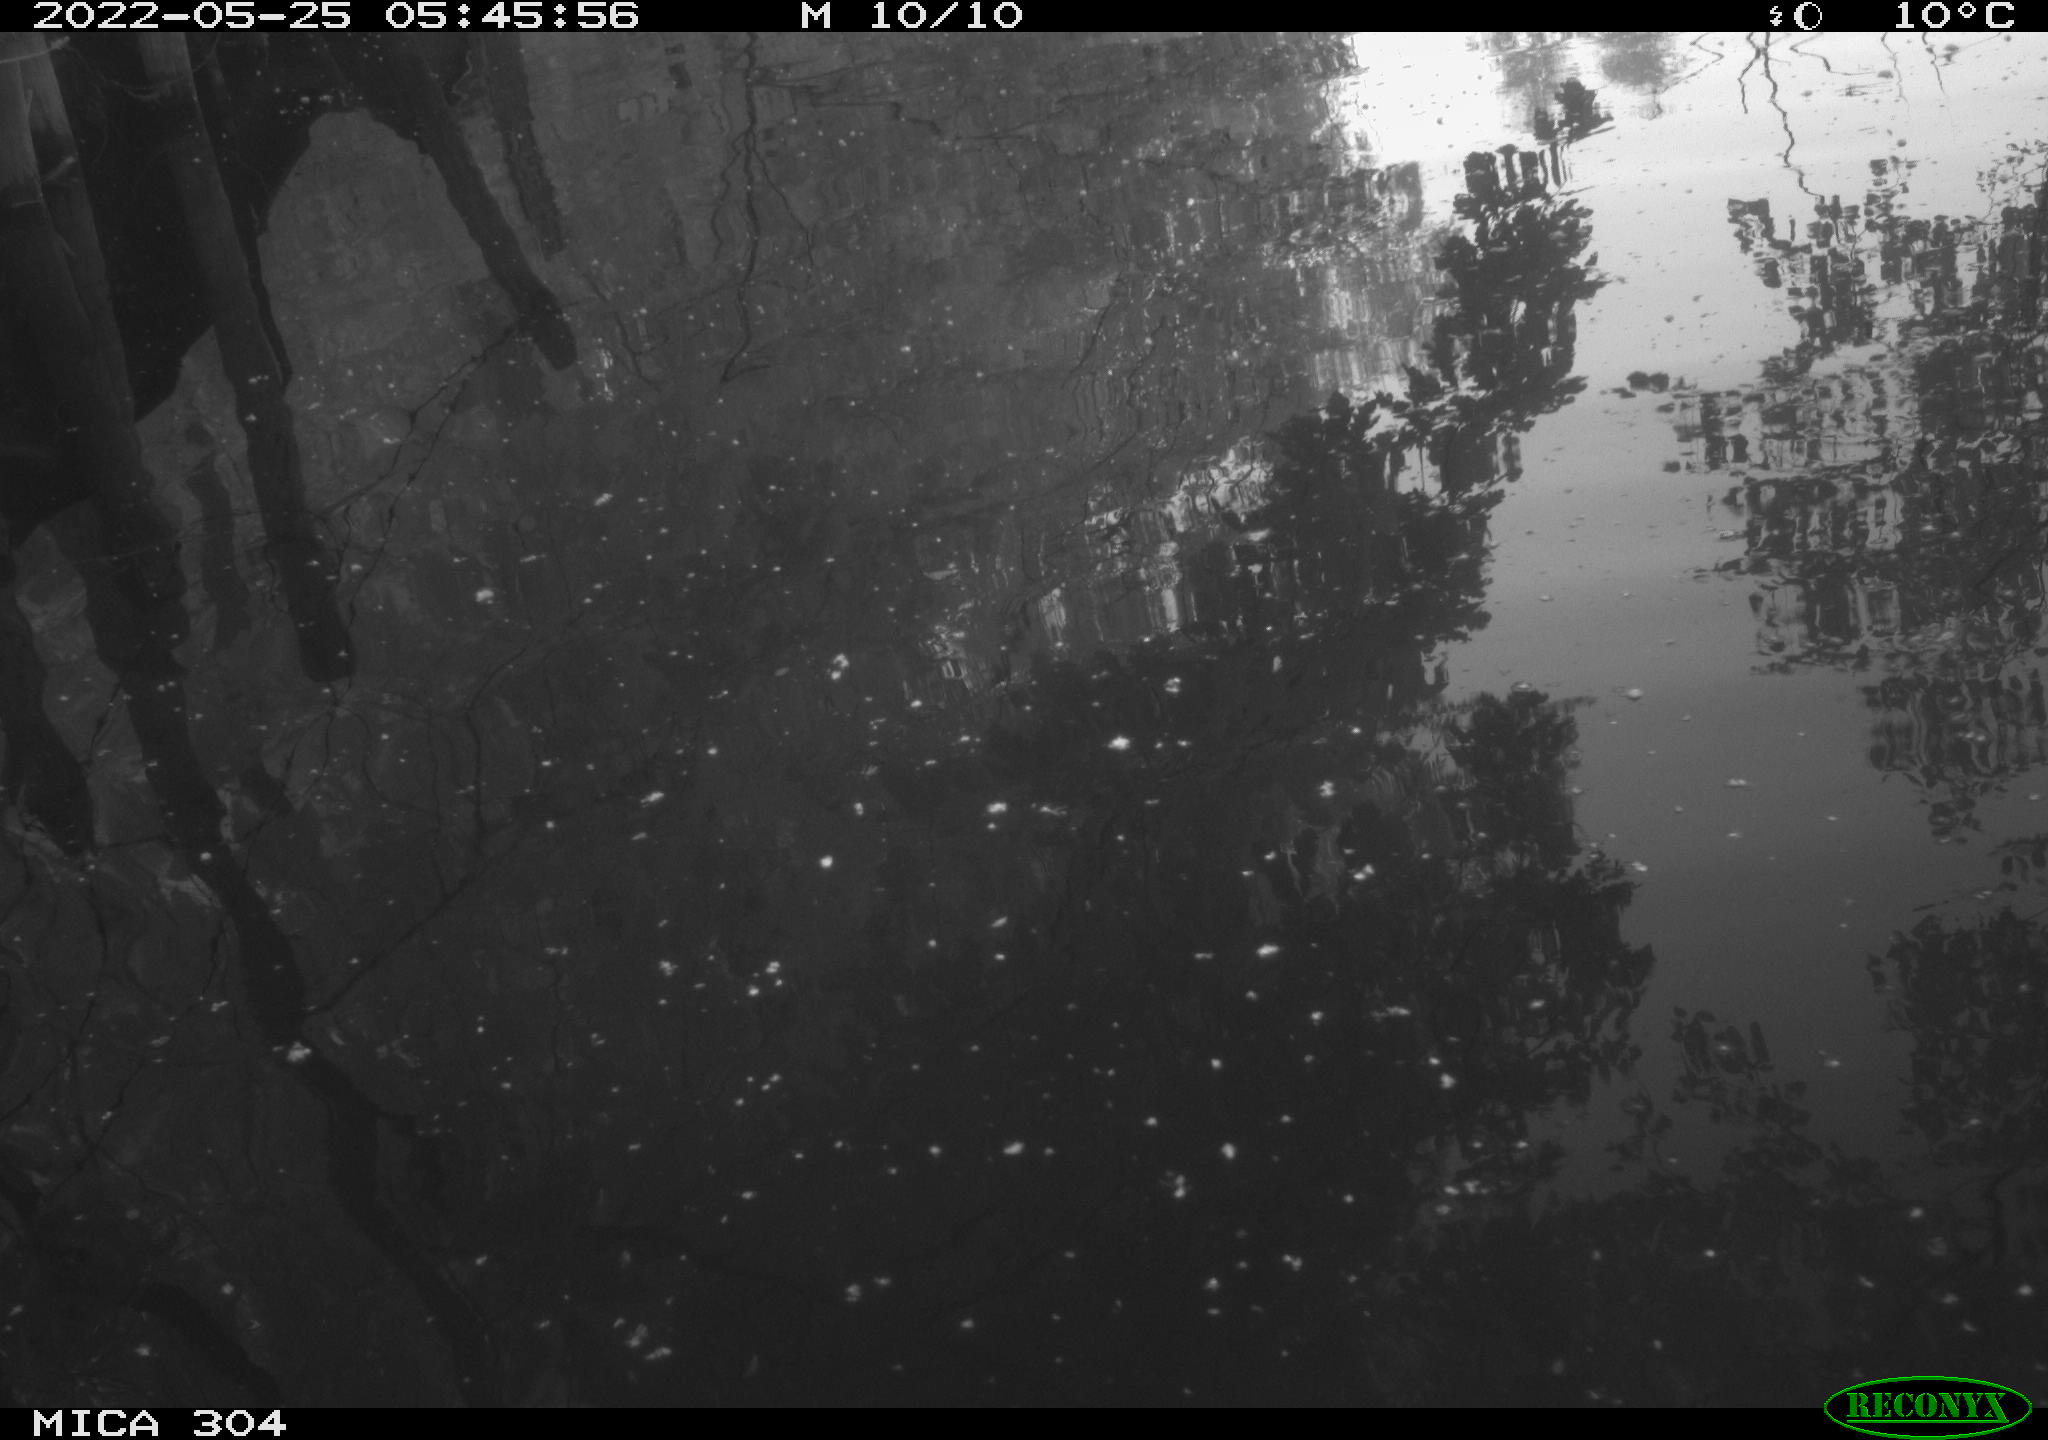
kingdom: Animalia
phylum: Chordata
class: Aves
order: Gruiformes
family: Rallidae
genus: Fulica
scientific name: Fulica atra
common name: Eurasian coot
